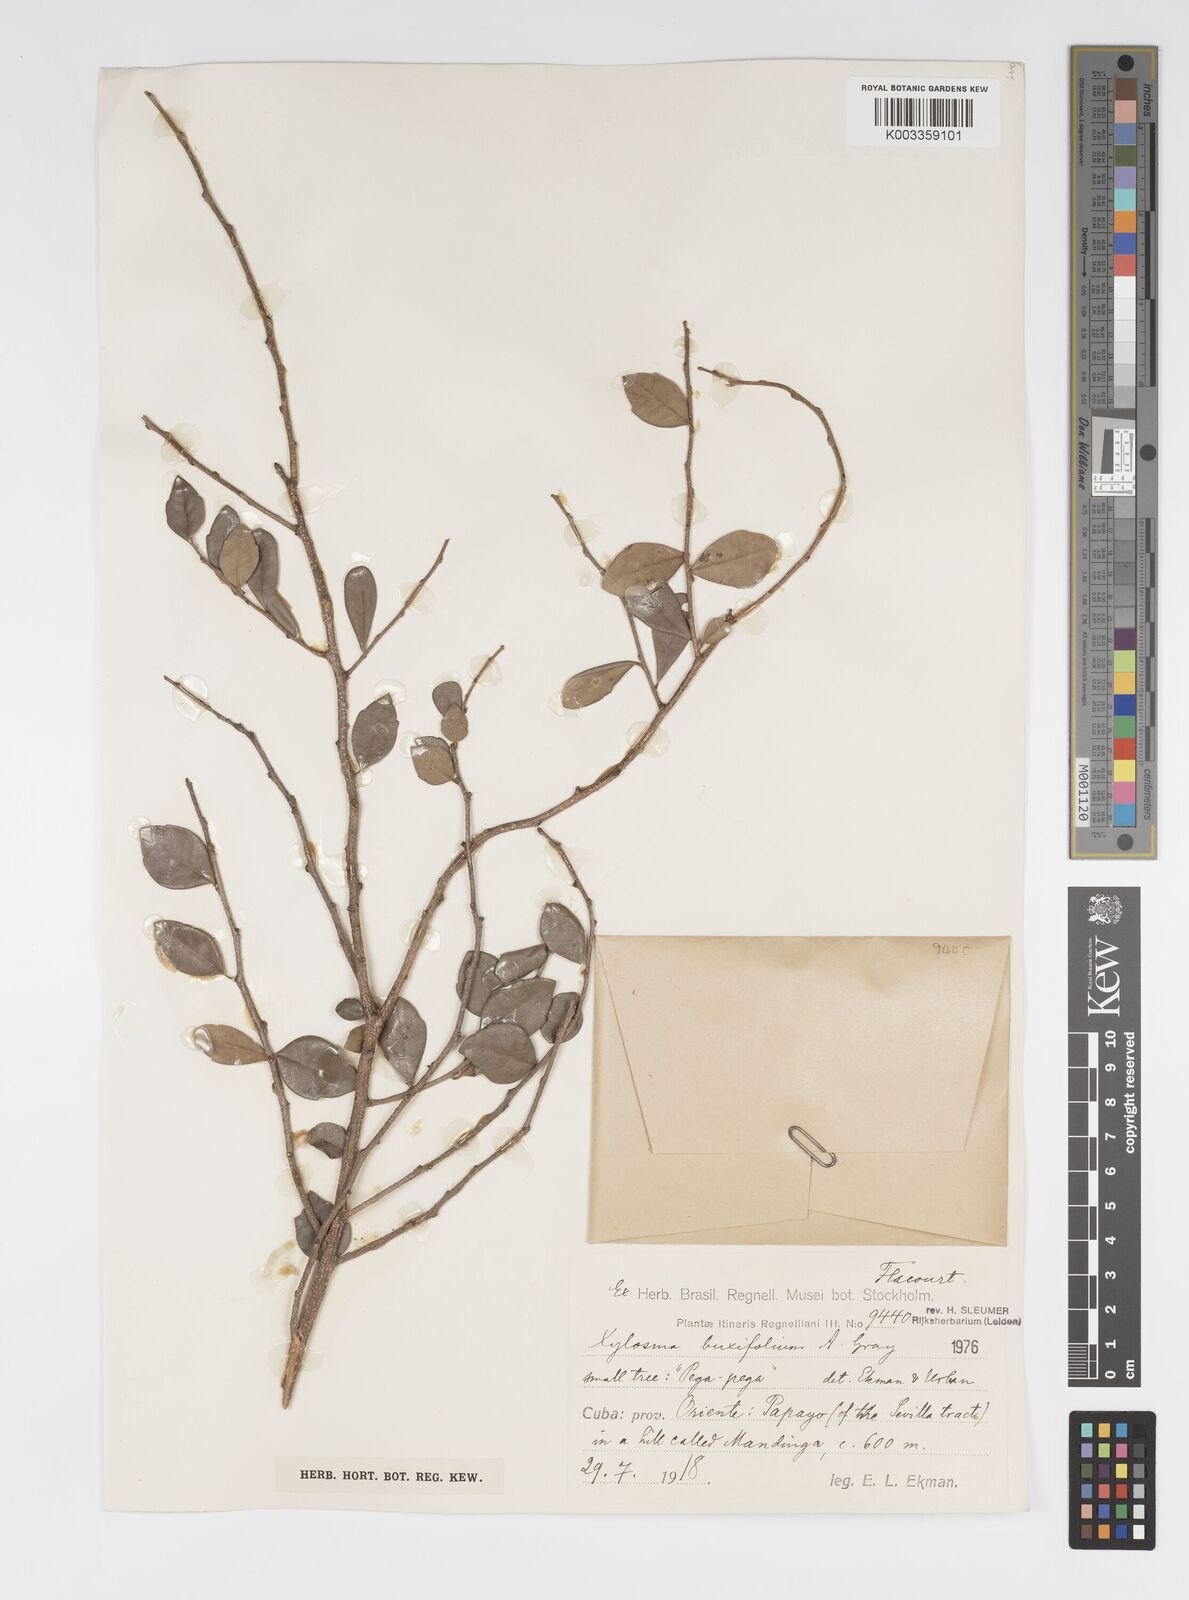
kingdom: Plantae
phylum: Tracheophyta
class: Magnoliopsida
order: Malpighiales
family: Salicaceae
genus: Xylosma
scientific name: Xylosma buxifolia
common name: Cockspur
